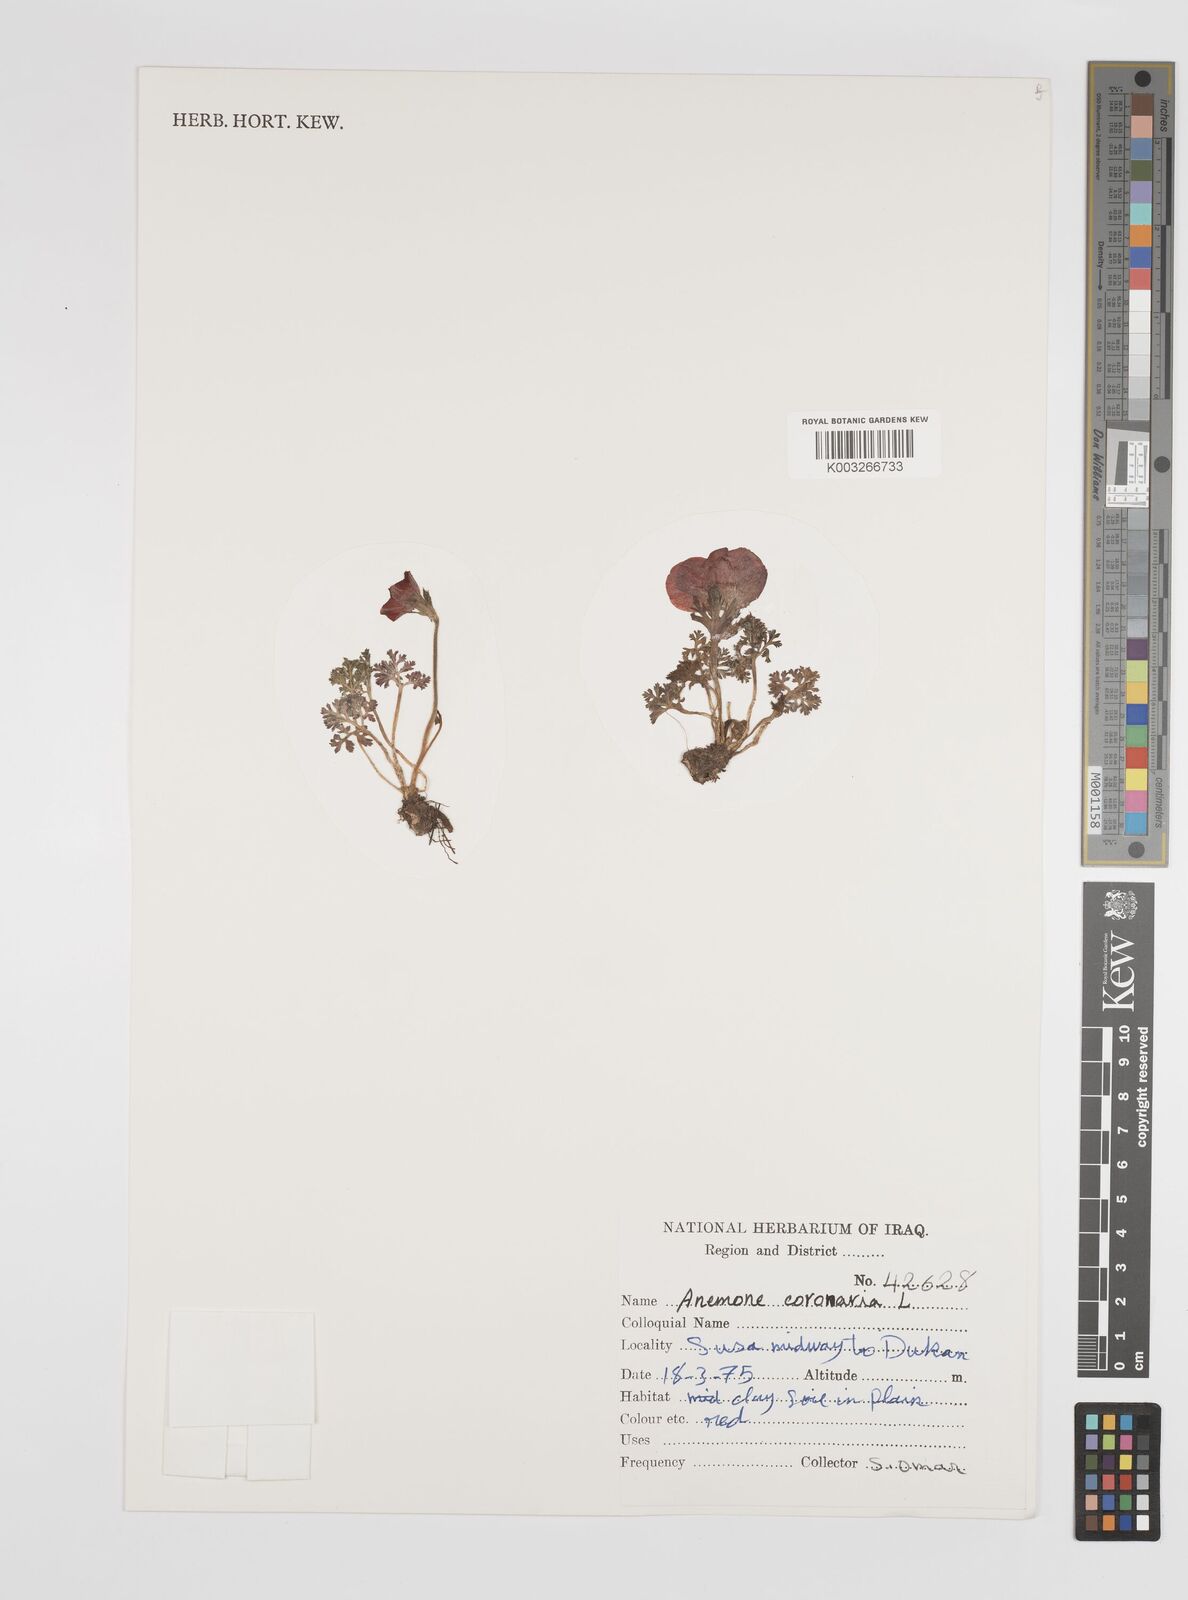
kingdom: Plantae
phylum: Tracheophyta
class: Magnoliopsida
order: Ranunculales
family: Ranunculaceae
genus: Anemone
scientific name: Anemone coronaria
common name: Poppy anemone
